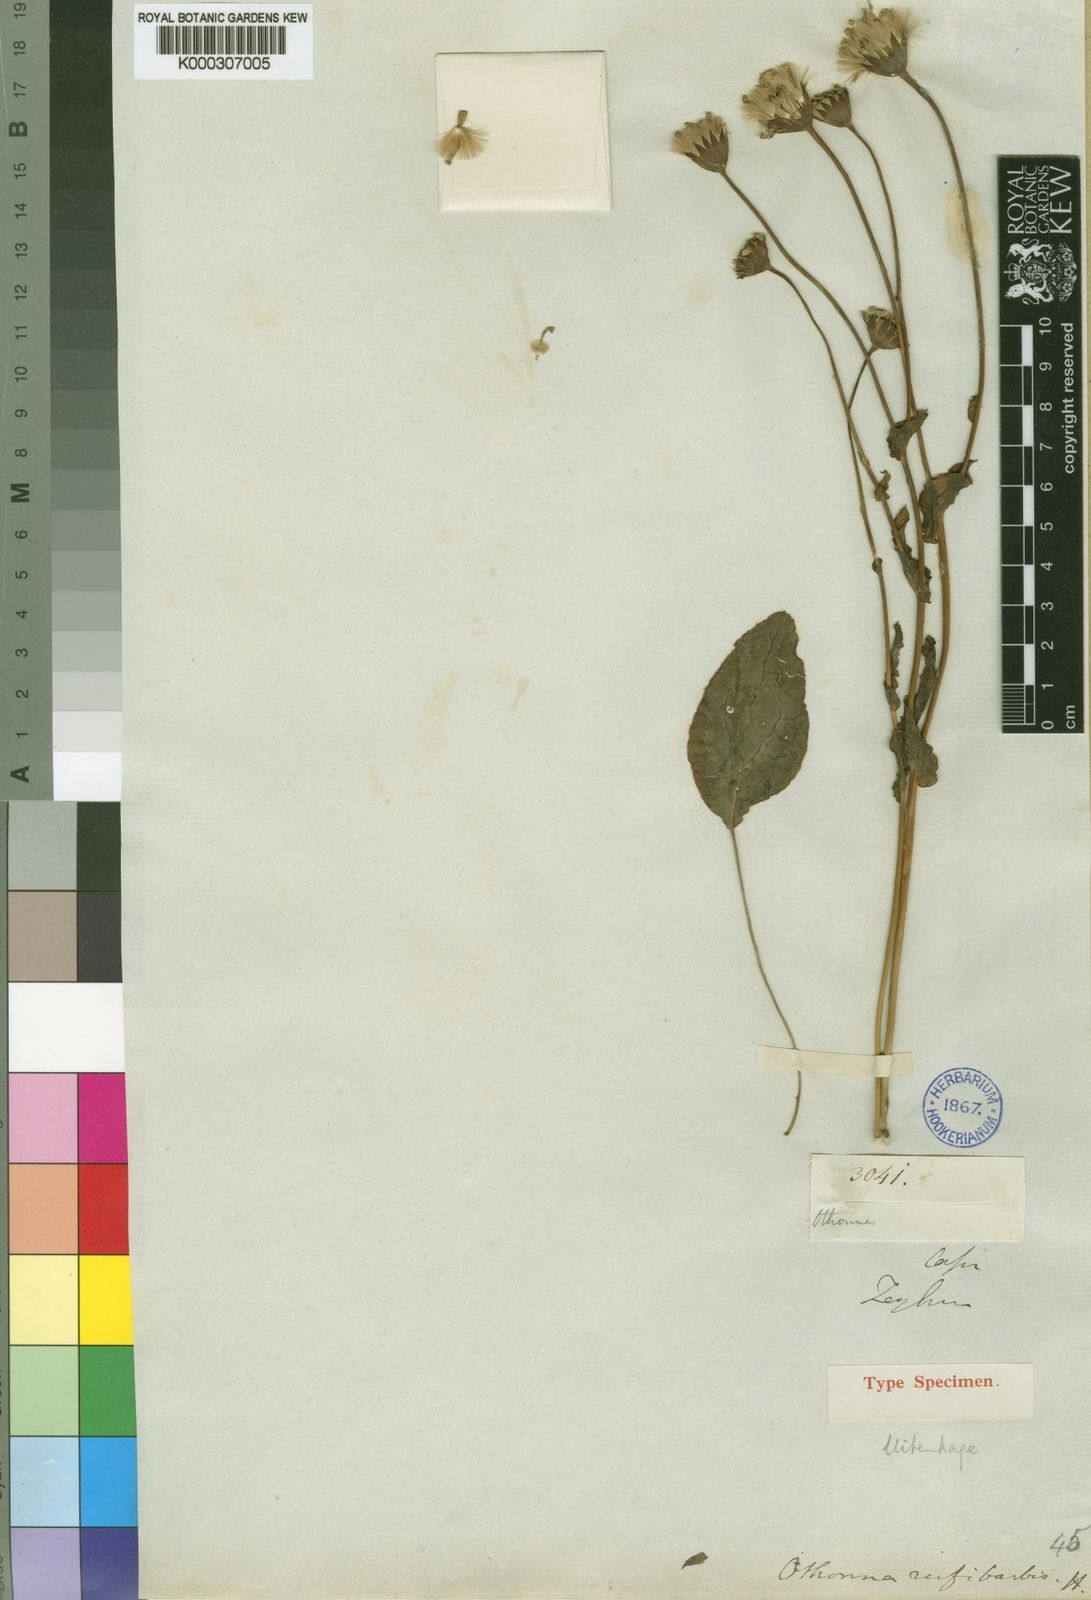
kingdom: Plantae
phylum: Tracheophyta
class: Magnoliopsida
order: Asterales
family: Asteraceae
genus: Othonna
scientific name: Othonna rufibarbis
